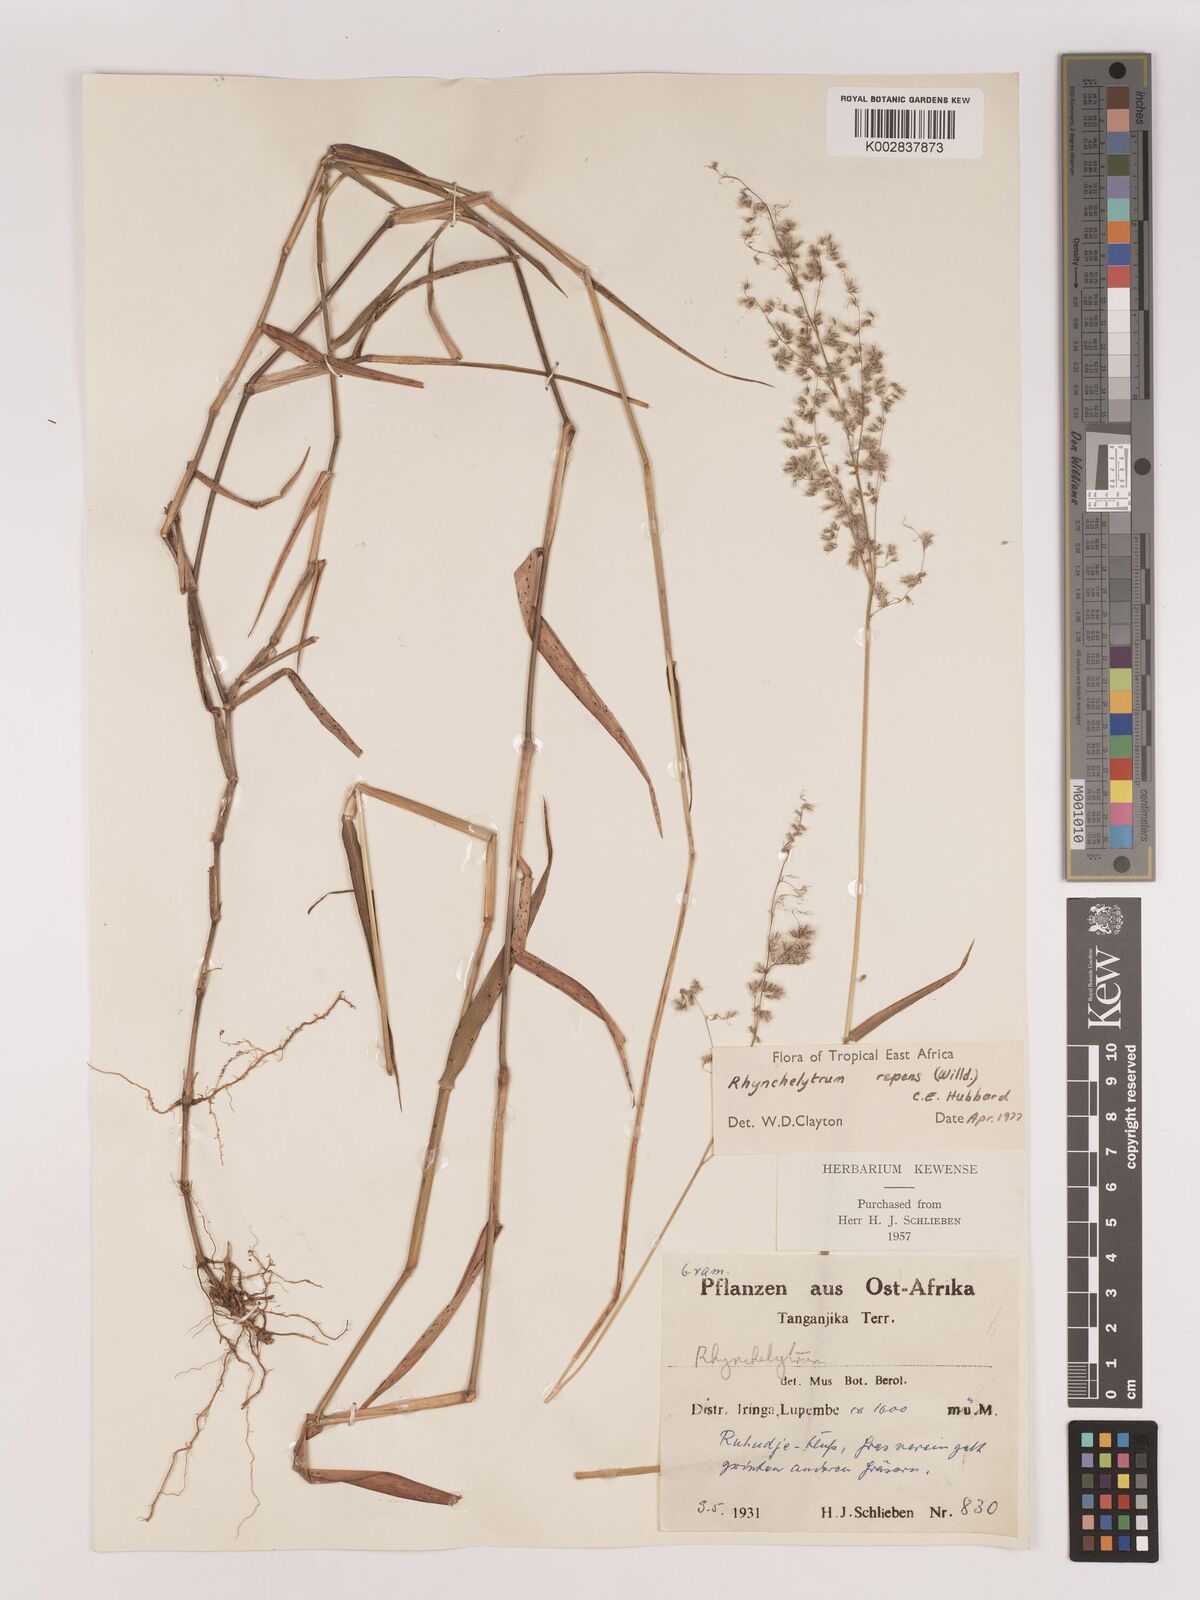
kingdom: Plantae
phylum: Tracheophyta
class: Liliopsida
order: Poales
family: Poaceae
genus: Melinis
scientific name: Melinis repens
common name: Rose natal grass
